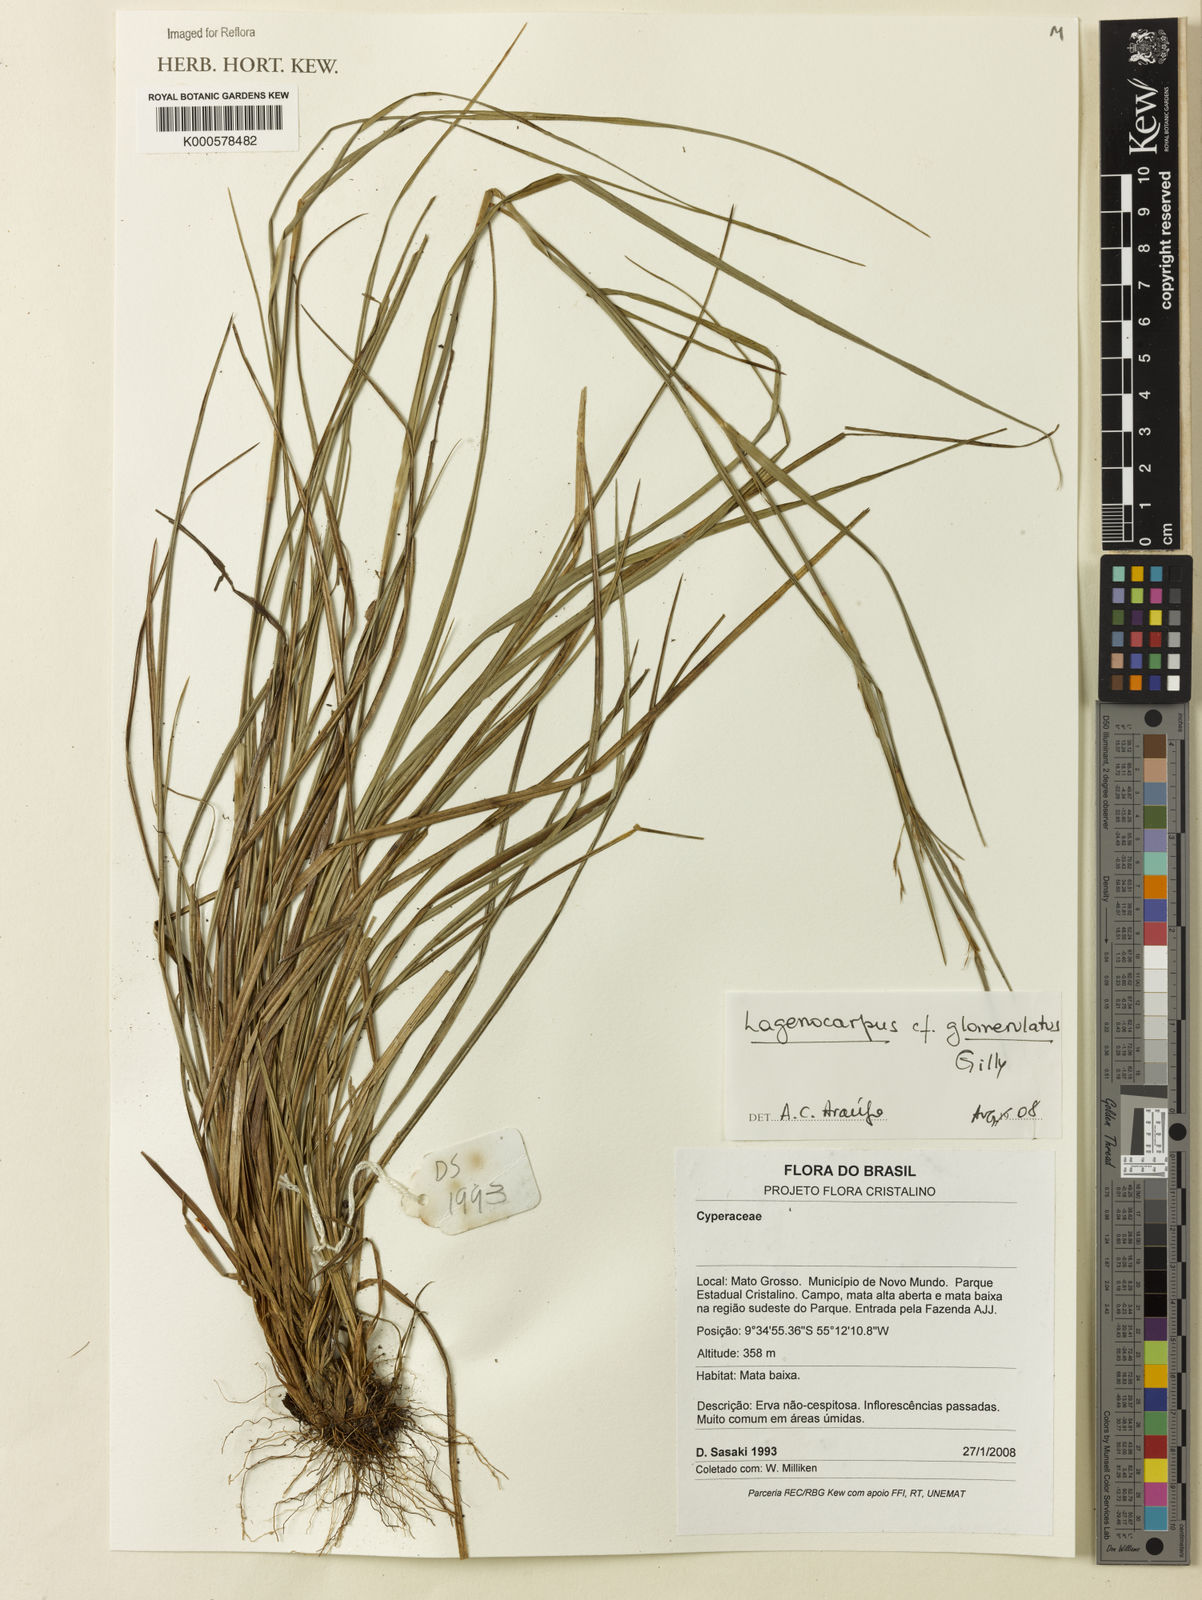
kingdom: Plantae
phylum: Tracheophyta
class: Liliopsida
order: Poales
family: Cyperaceae
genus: Lagenocarpus
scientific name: Lagenocarpus
